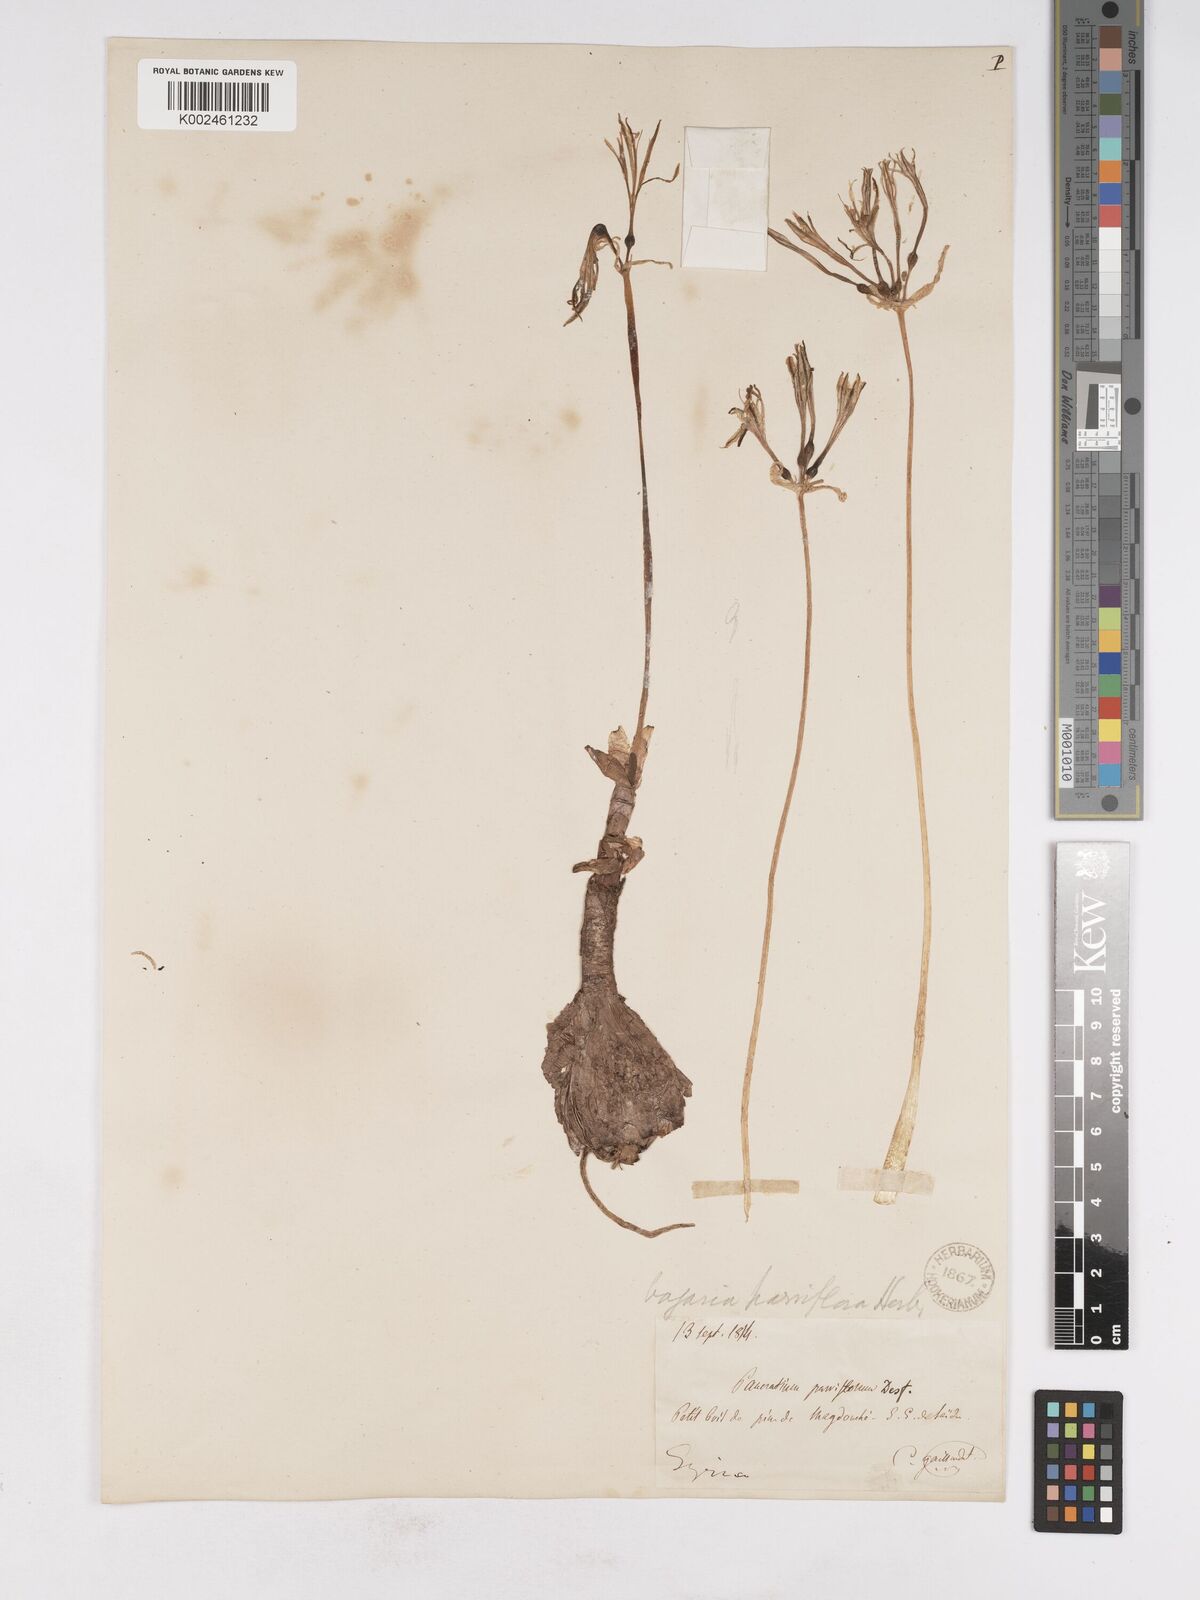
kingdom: Plantae
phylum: Tracheophyta
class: Liliopsida
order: Asparagales
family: Amaryllidaceae
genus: Vagaria
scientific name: Vagaria parviflora
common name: Small-flowered pancratium
